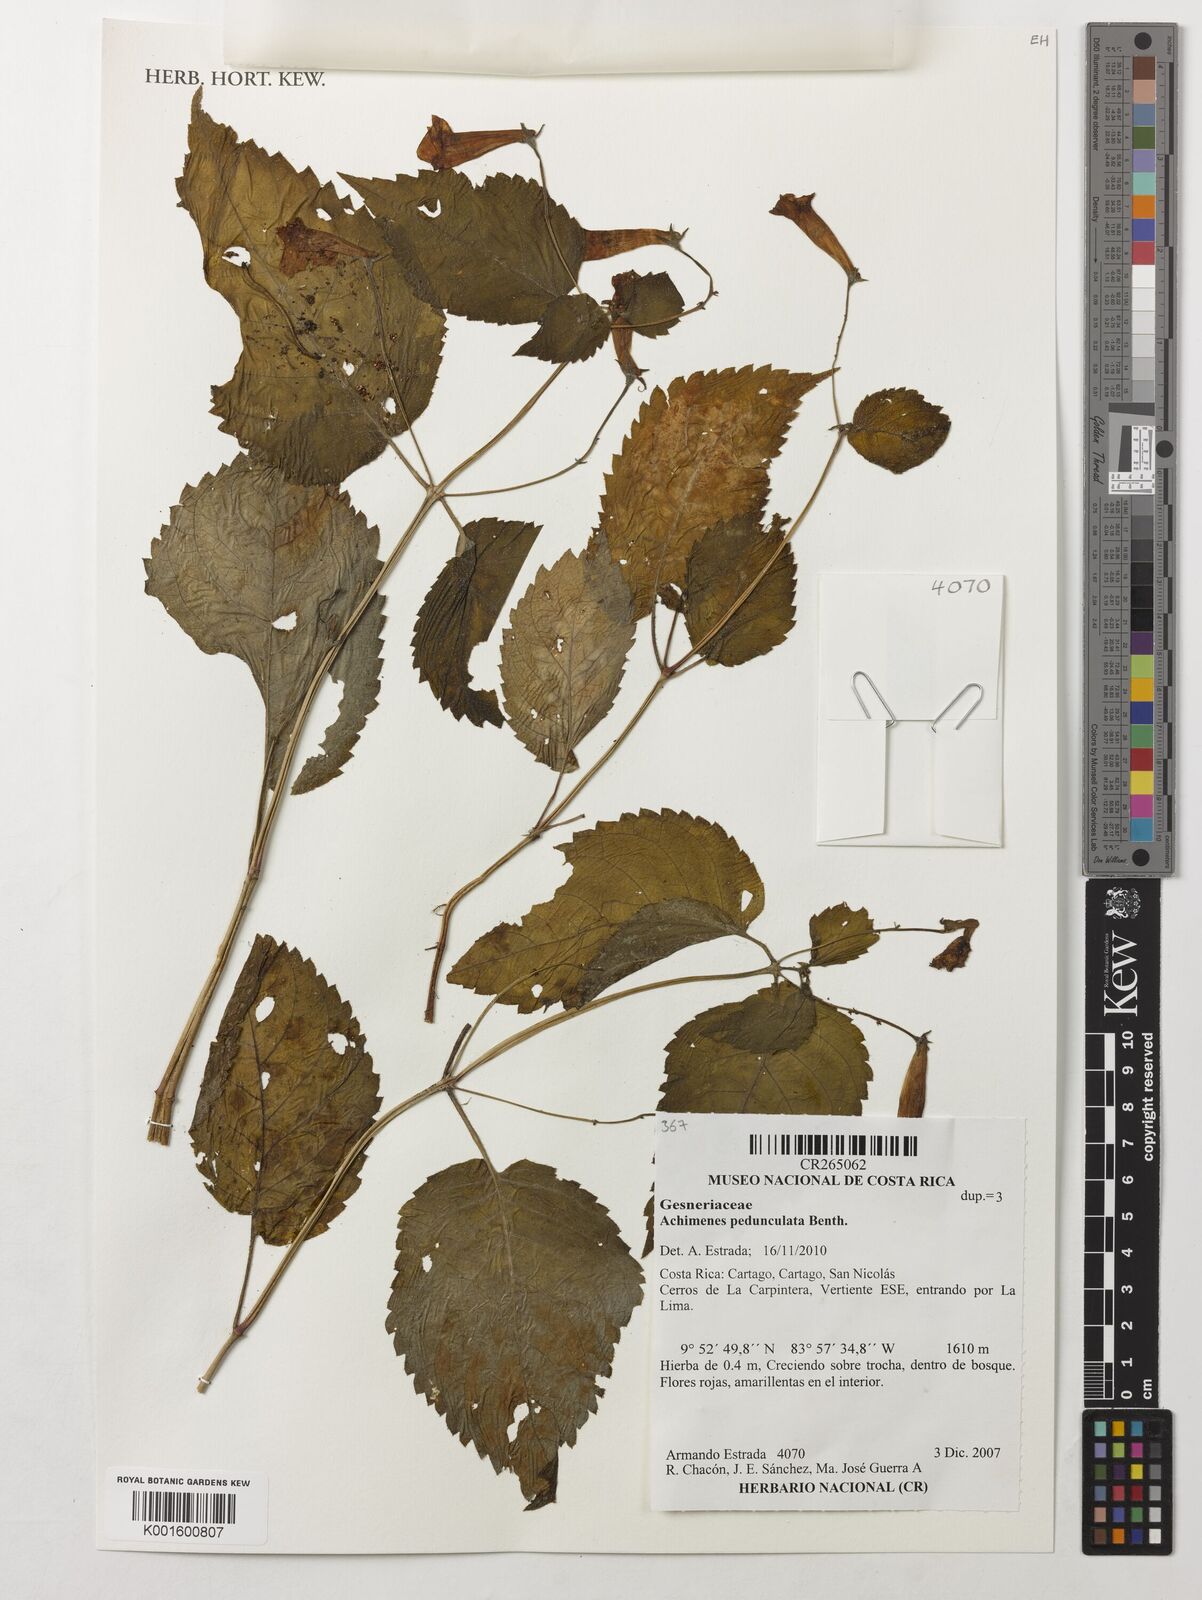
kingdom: Plantae
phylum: Tracheophyta
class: Magnoliopsida
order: Lamiales
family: Gesneriaceae
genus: Achimenes
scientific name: Achimenes pedunculata
